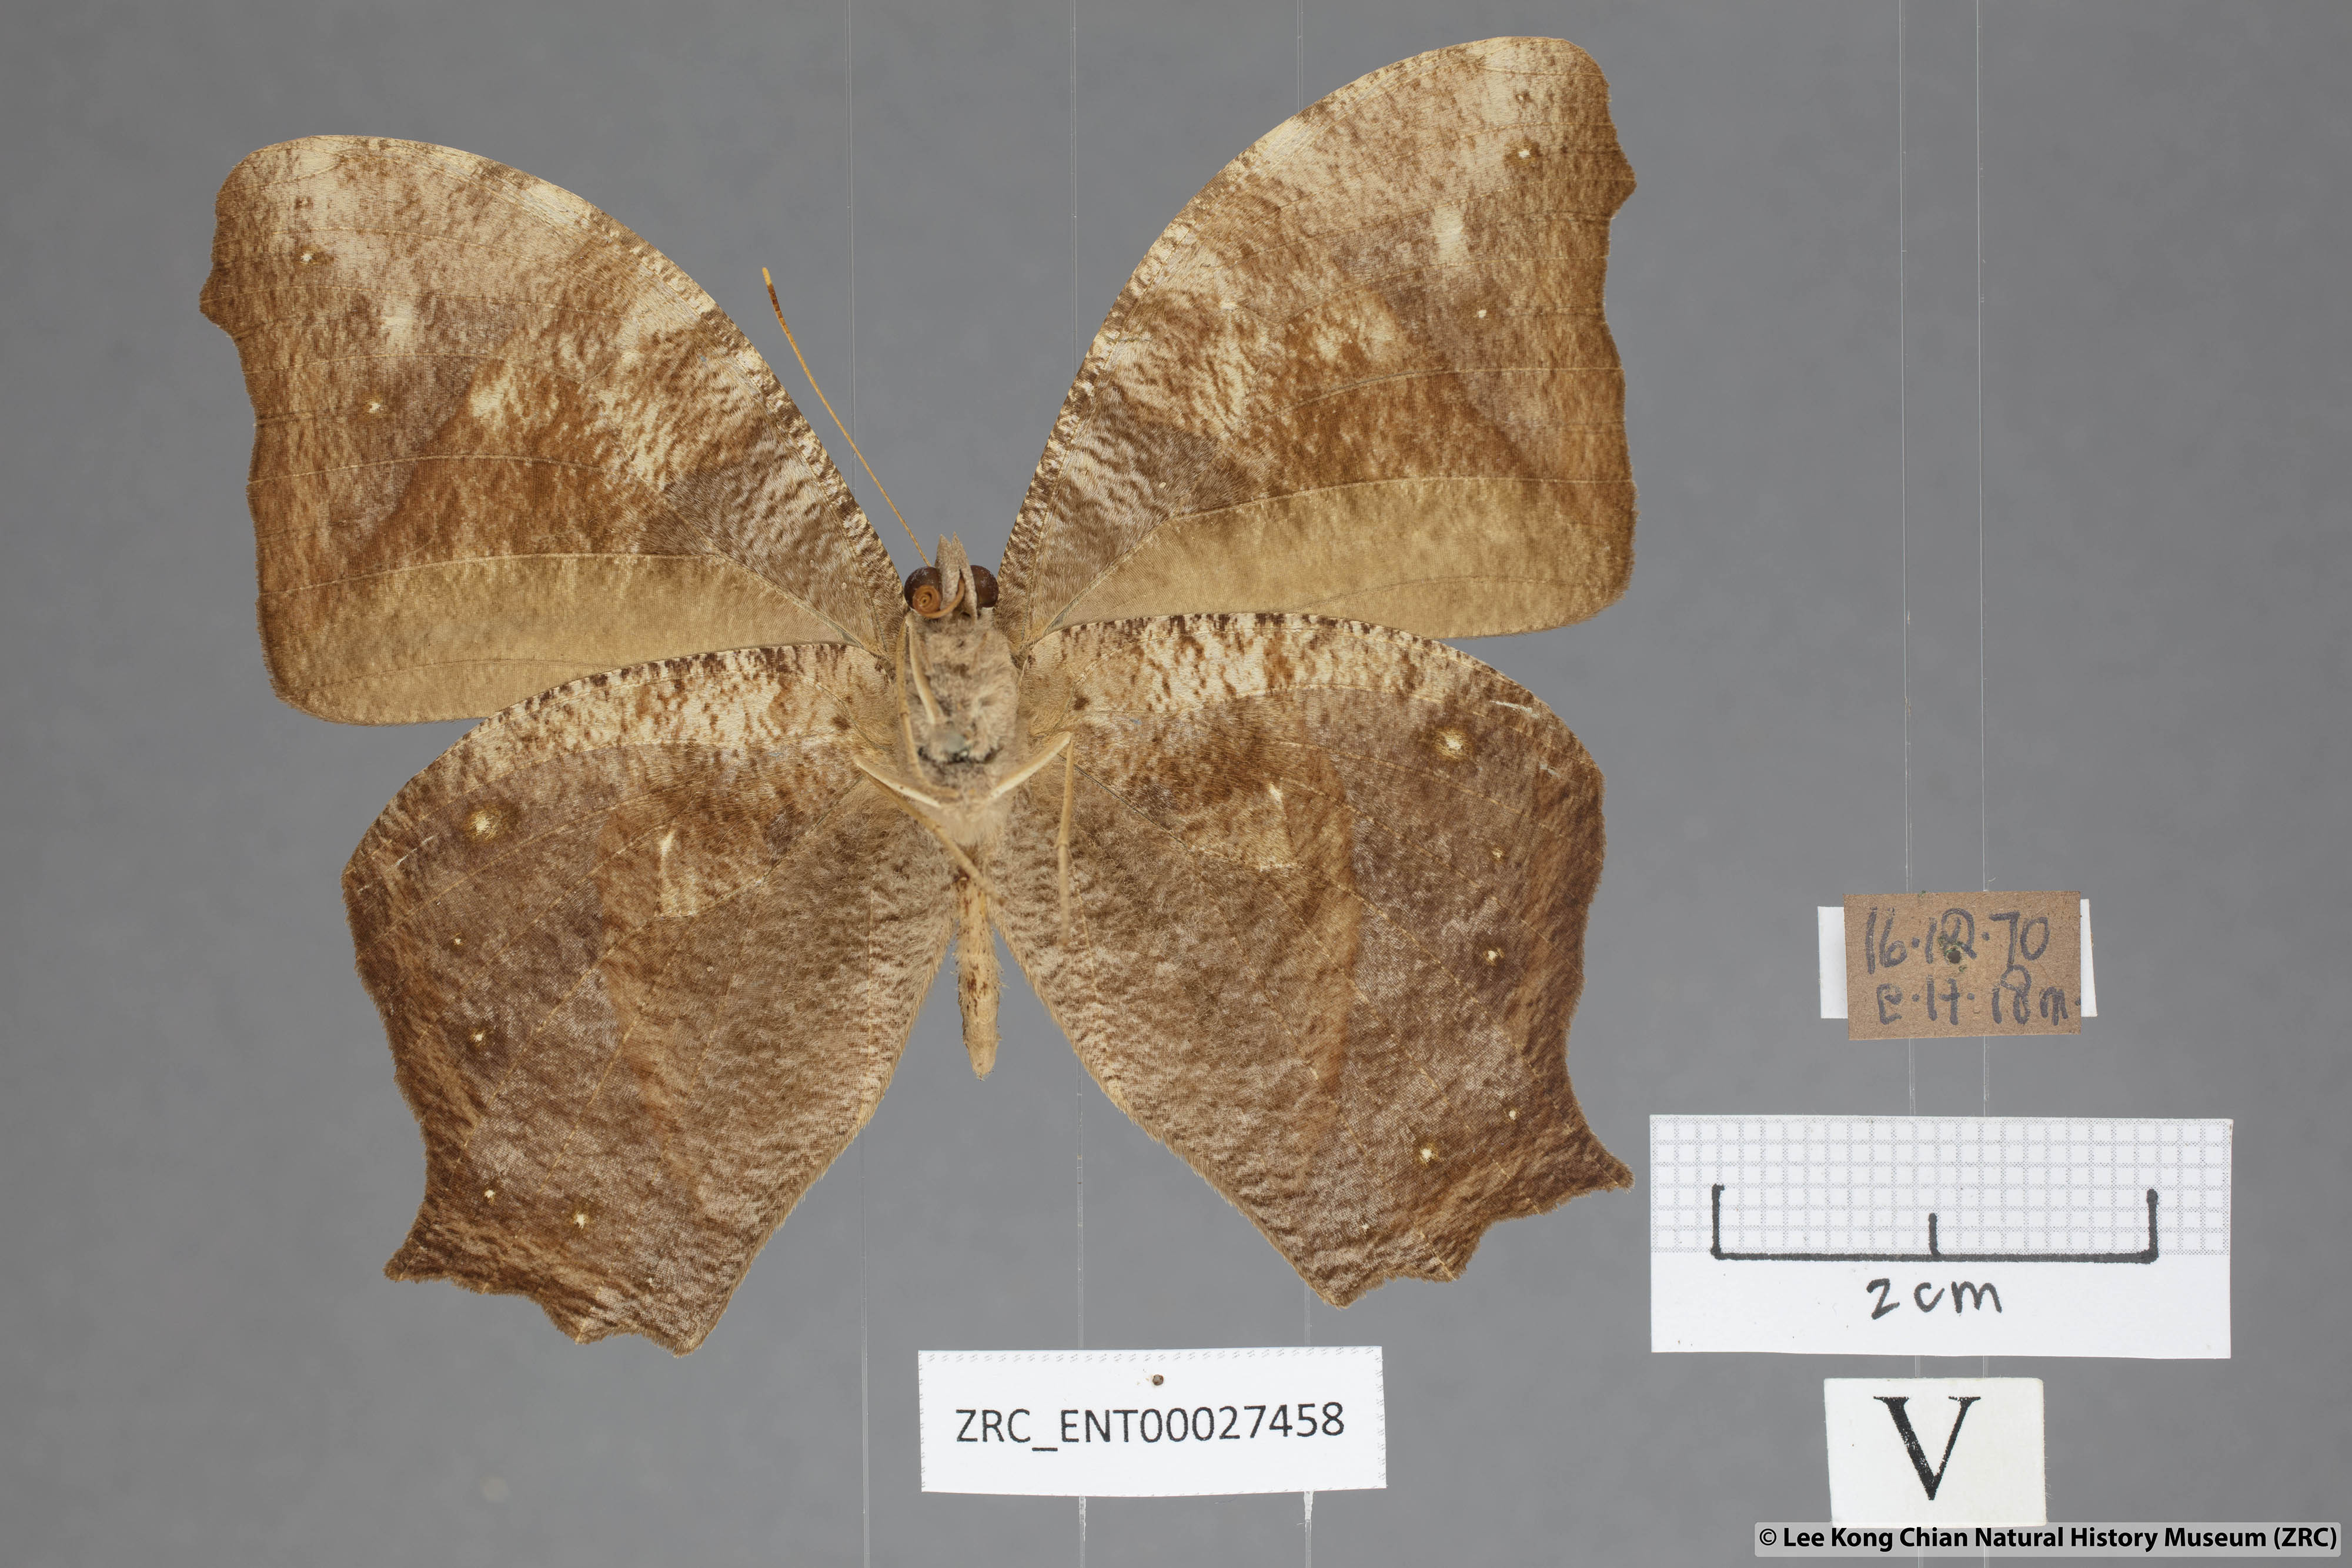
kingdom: Animalia
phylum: Arthropoda
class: Insecta
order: Lepidoptera
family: Nymphalidae
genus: Melanitis
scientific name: Melanitis phedima
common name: Dark evening brown
